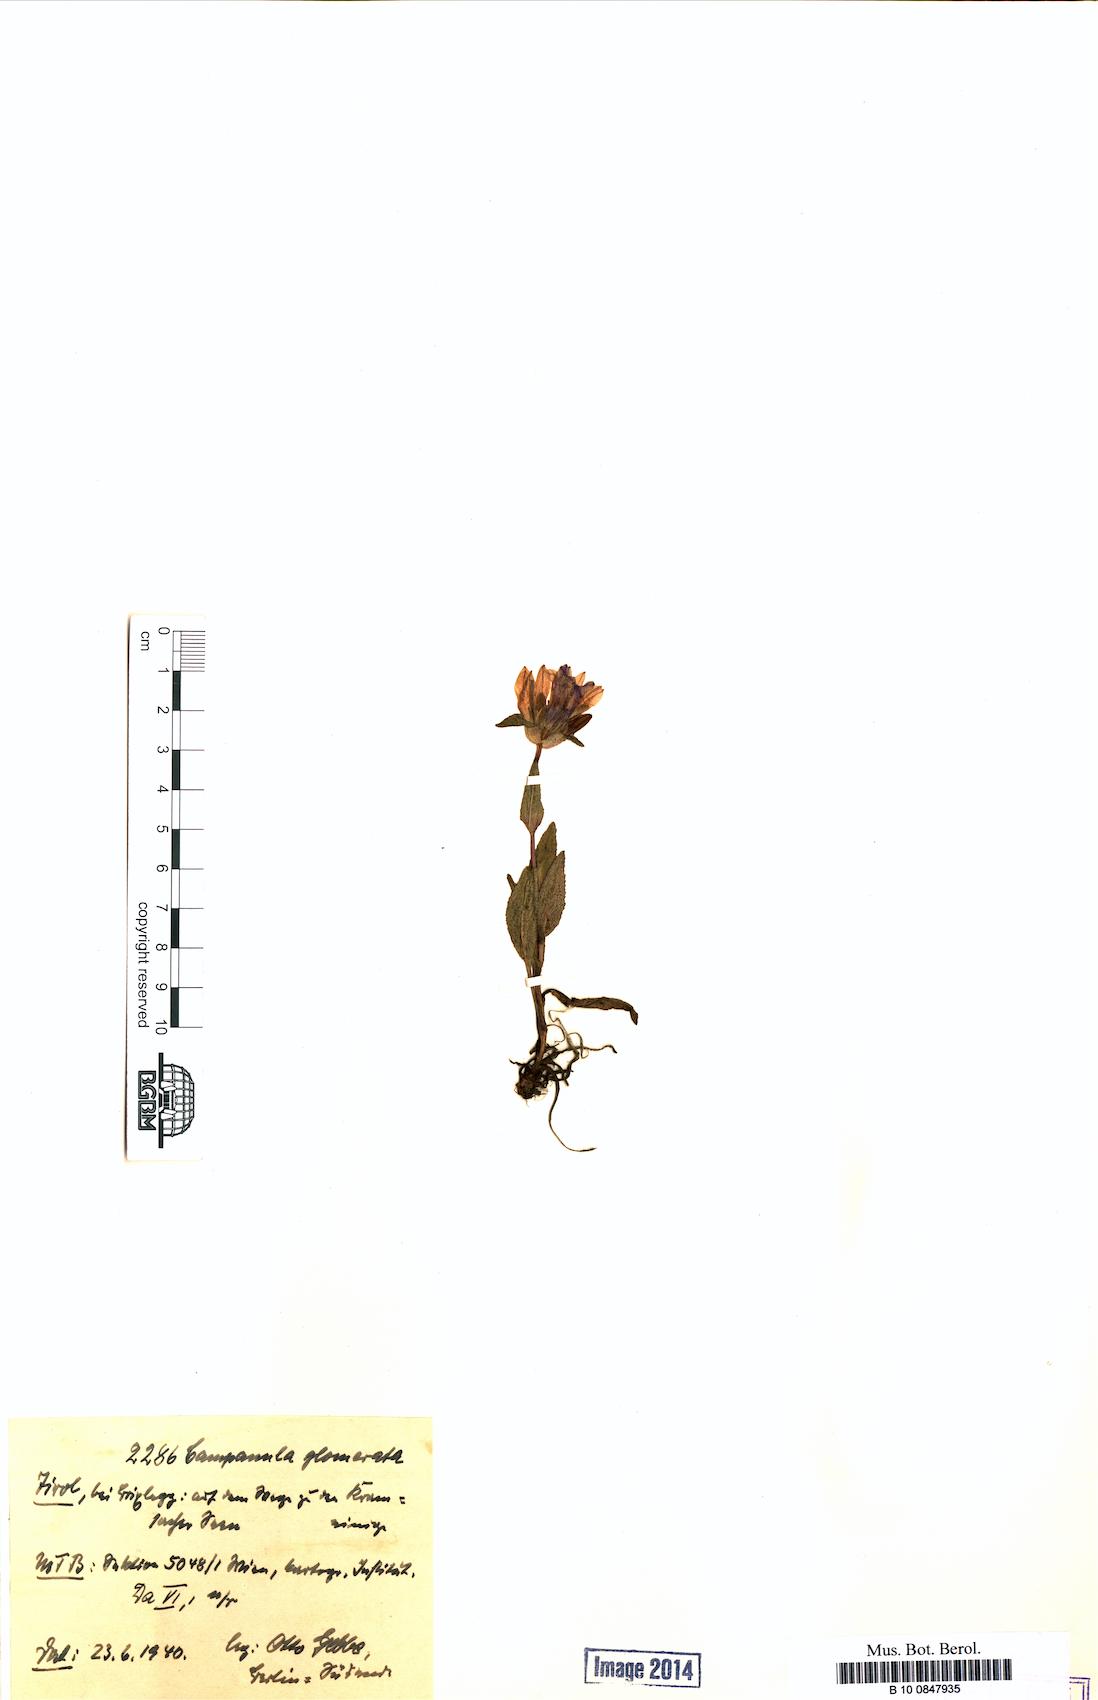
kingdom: Plantae
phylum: Tracheophyta
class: Magnoliopsida
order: Asterales
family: Campanulaceae
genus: Campanula
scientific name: Campanula glomerata
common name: Clustered bellflower
